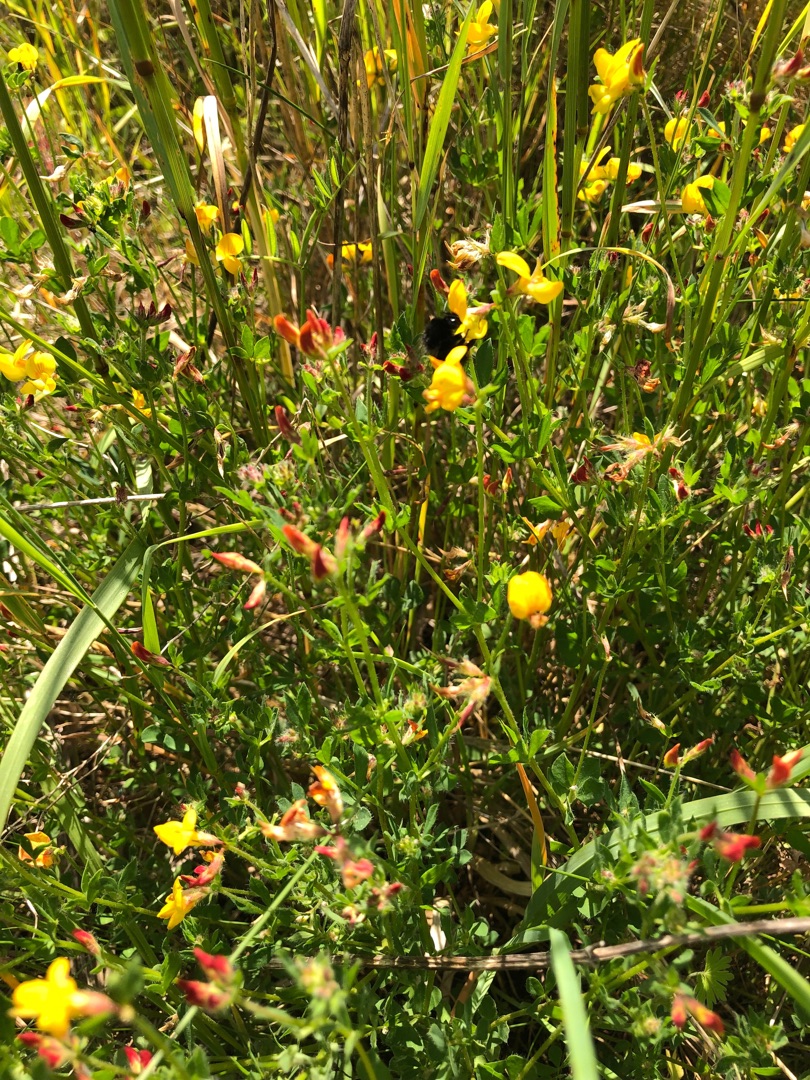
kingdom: Plantae
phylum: Tracheophyta
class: Magnoliopsida
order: Fabales
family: Fabaceae
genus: Lotus
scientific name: Lotus corniculatus
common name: Almindelig kællingetand
